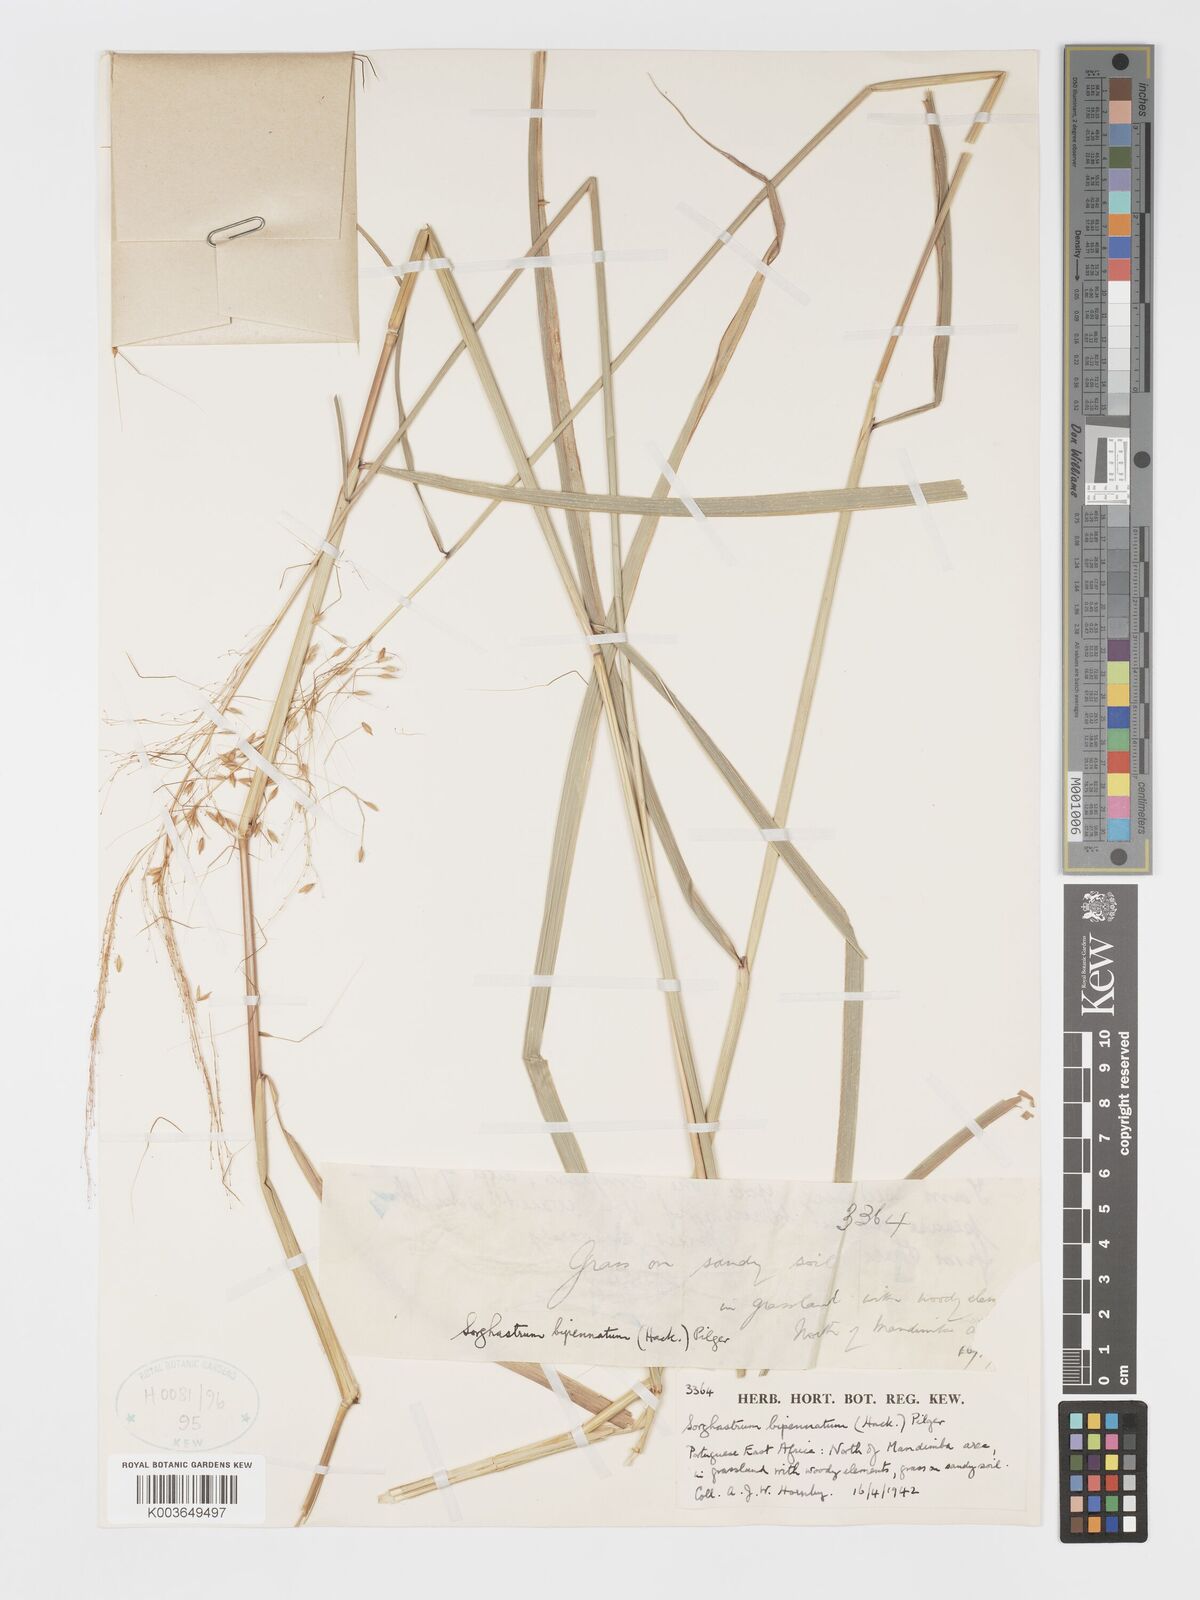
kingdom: Plantae
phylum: Tracheophyta
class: Liliopsida
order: Poales
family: Poaceae
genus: Sorghastrum
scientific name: Sorghastrum incompletum
